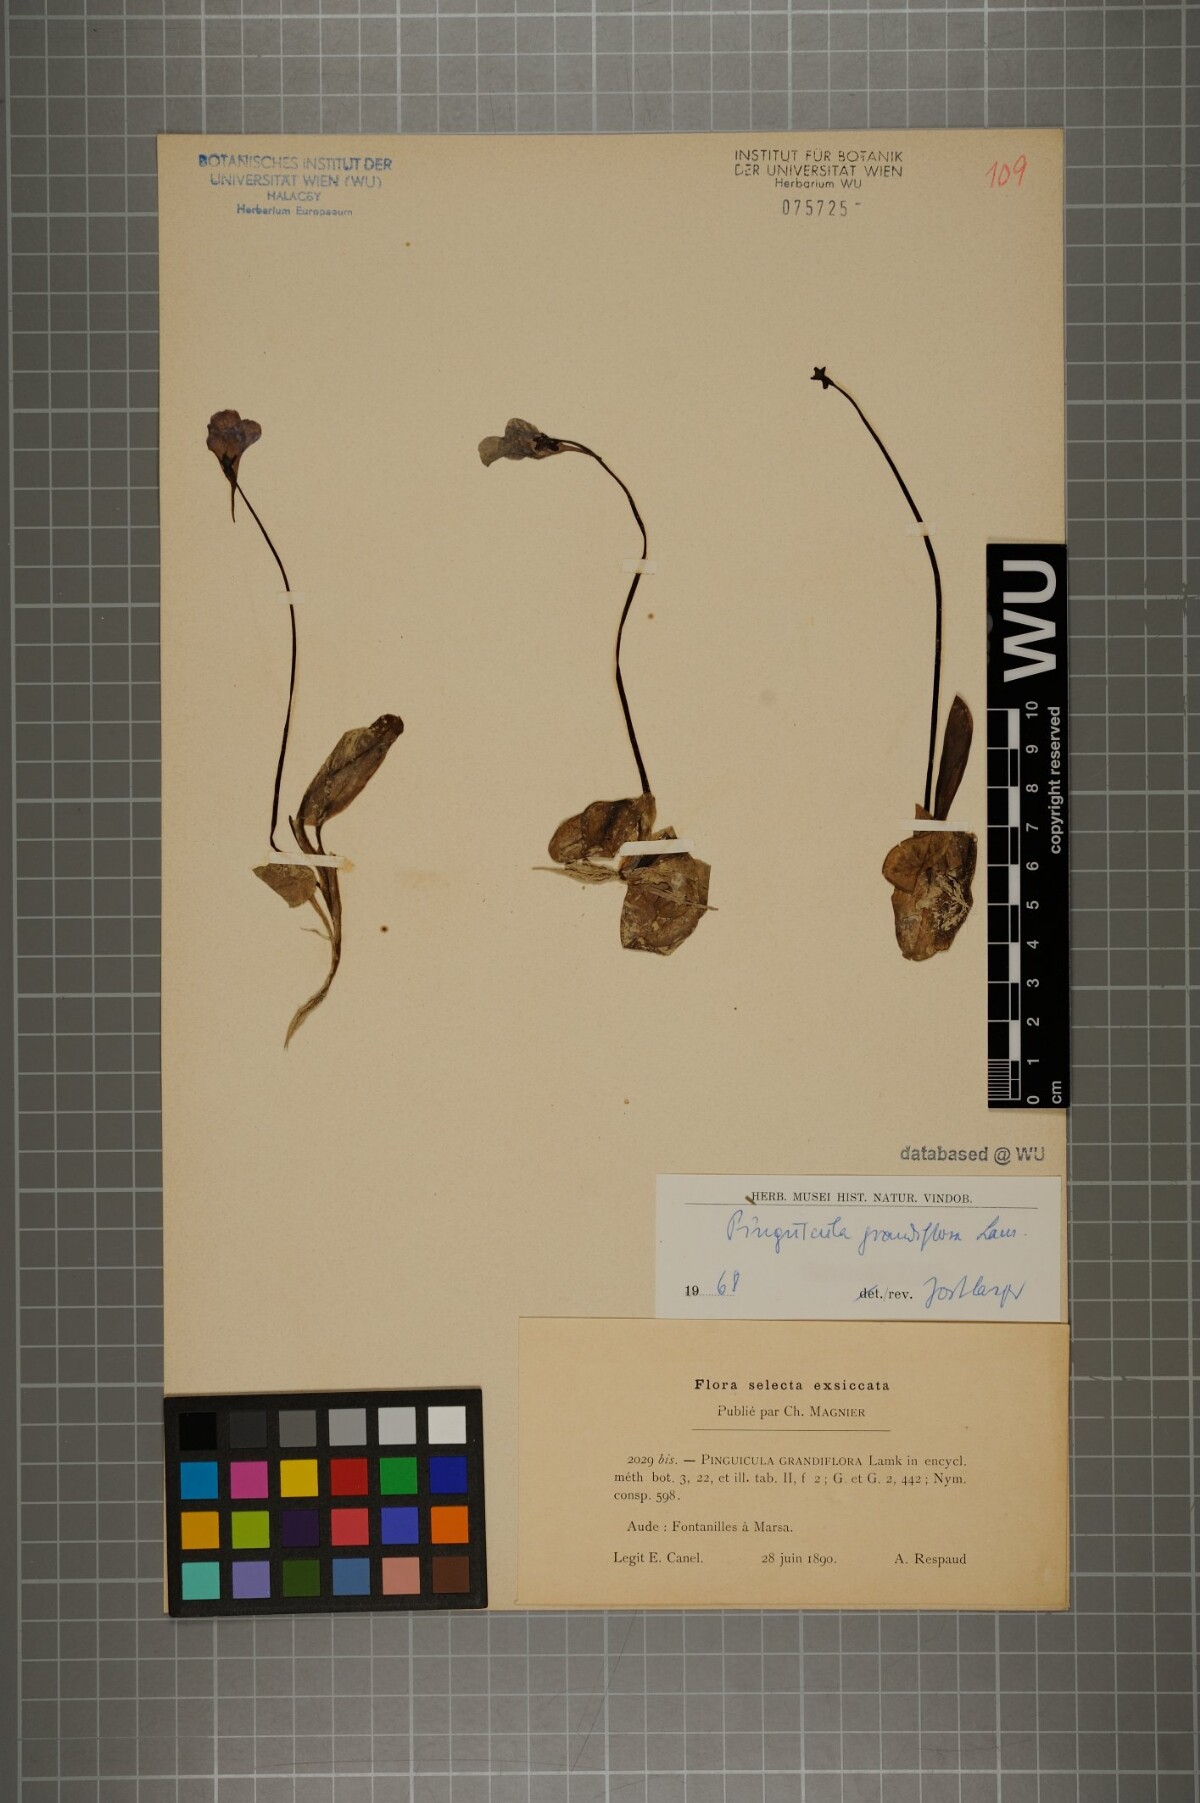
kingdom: Plantae
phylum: Tracheophyta
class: Magnoliopsida
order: Lamiales
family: Lentibulariaceae
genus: Pinguicula
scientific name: Pinguicula grandiflora
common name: Large-flowered butterwort
